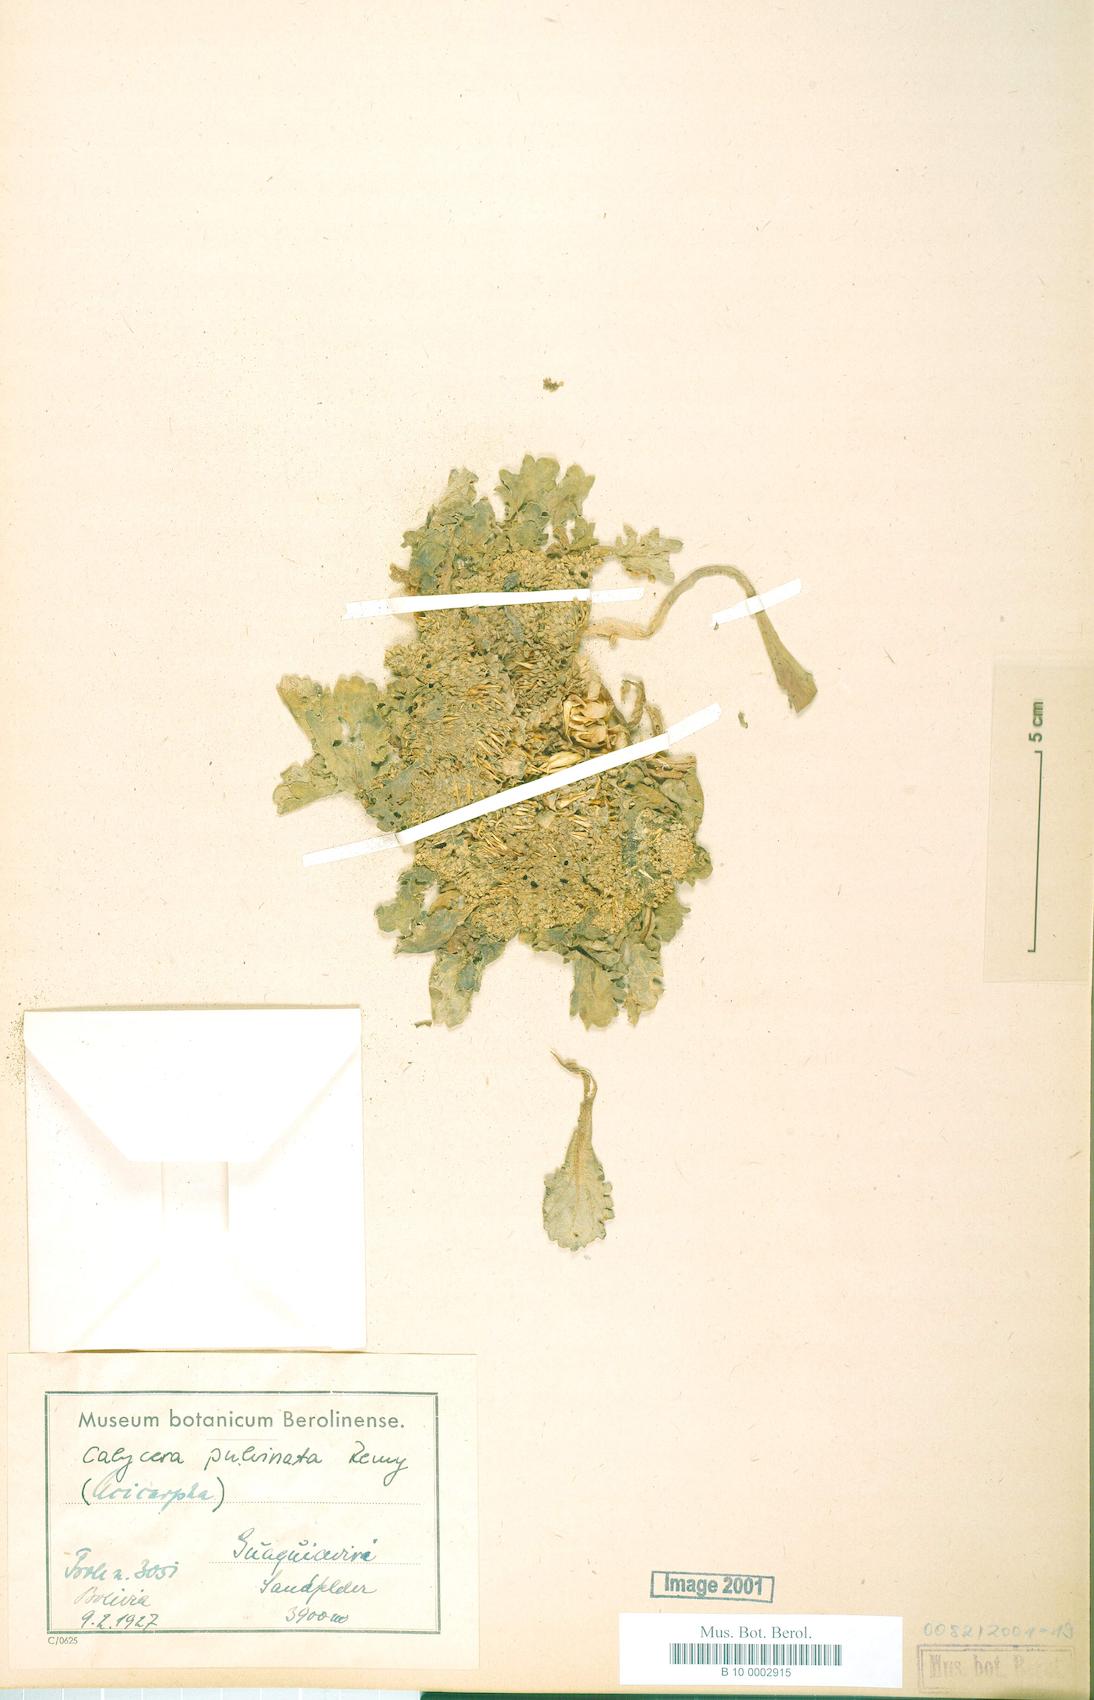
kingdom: Plantae
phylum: Tracheophyta
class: Magnoliopsida
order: Asterales
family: Calyceraceae
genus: Calycera
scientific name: Calycera pulvinata
